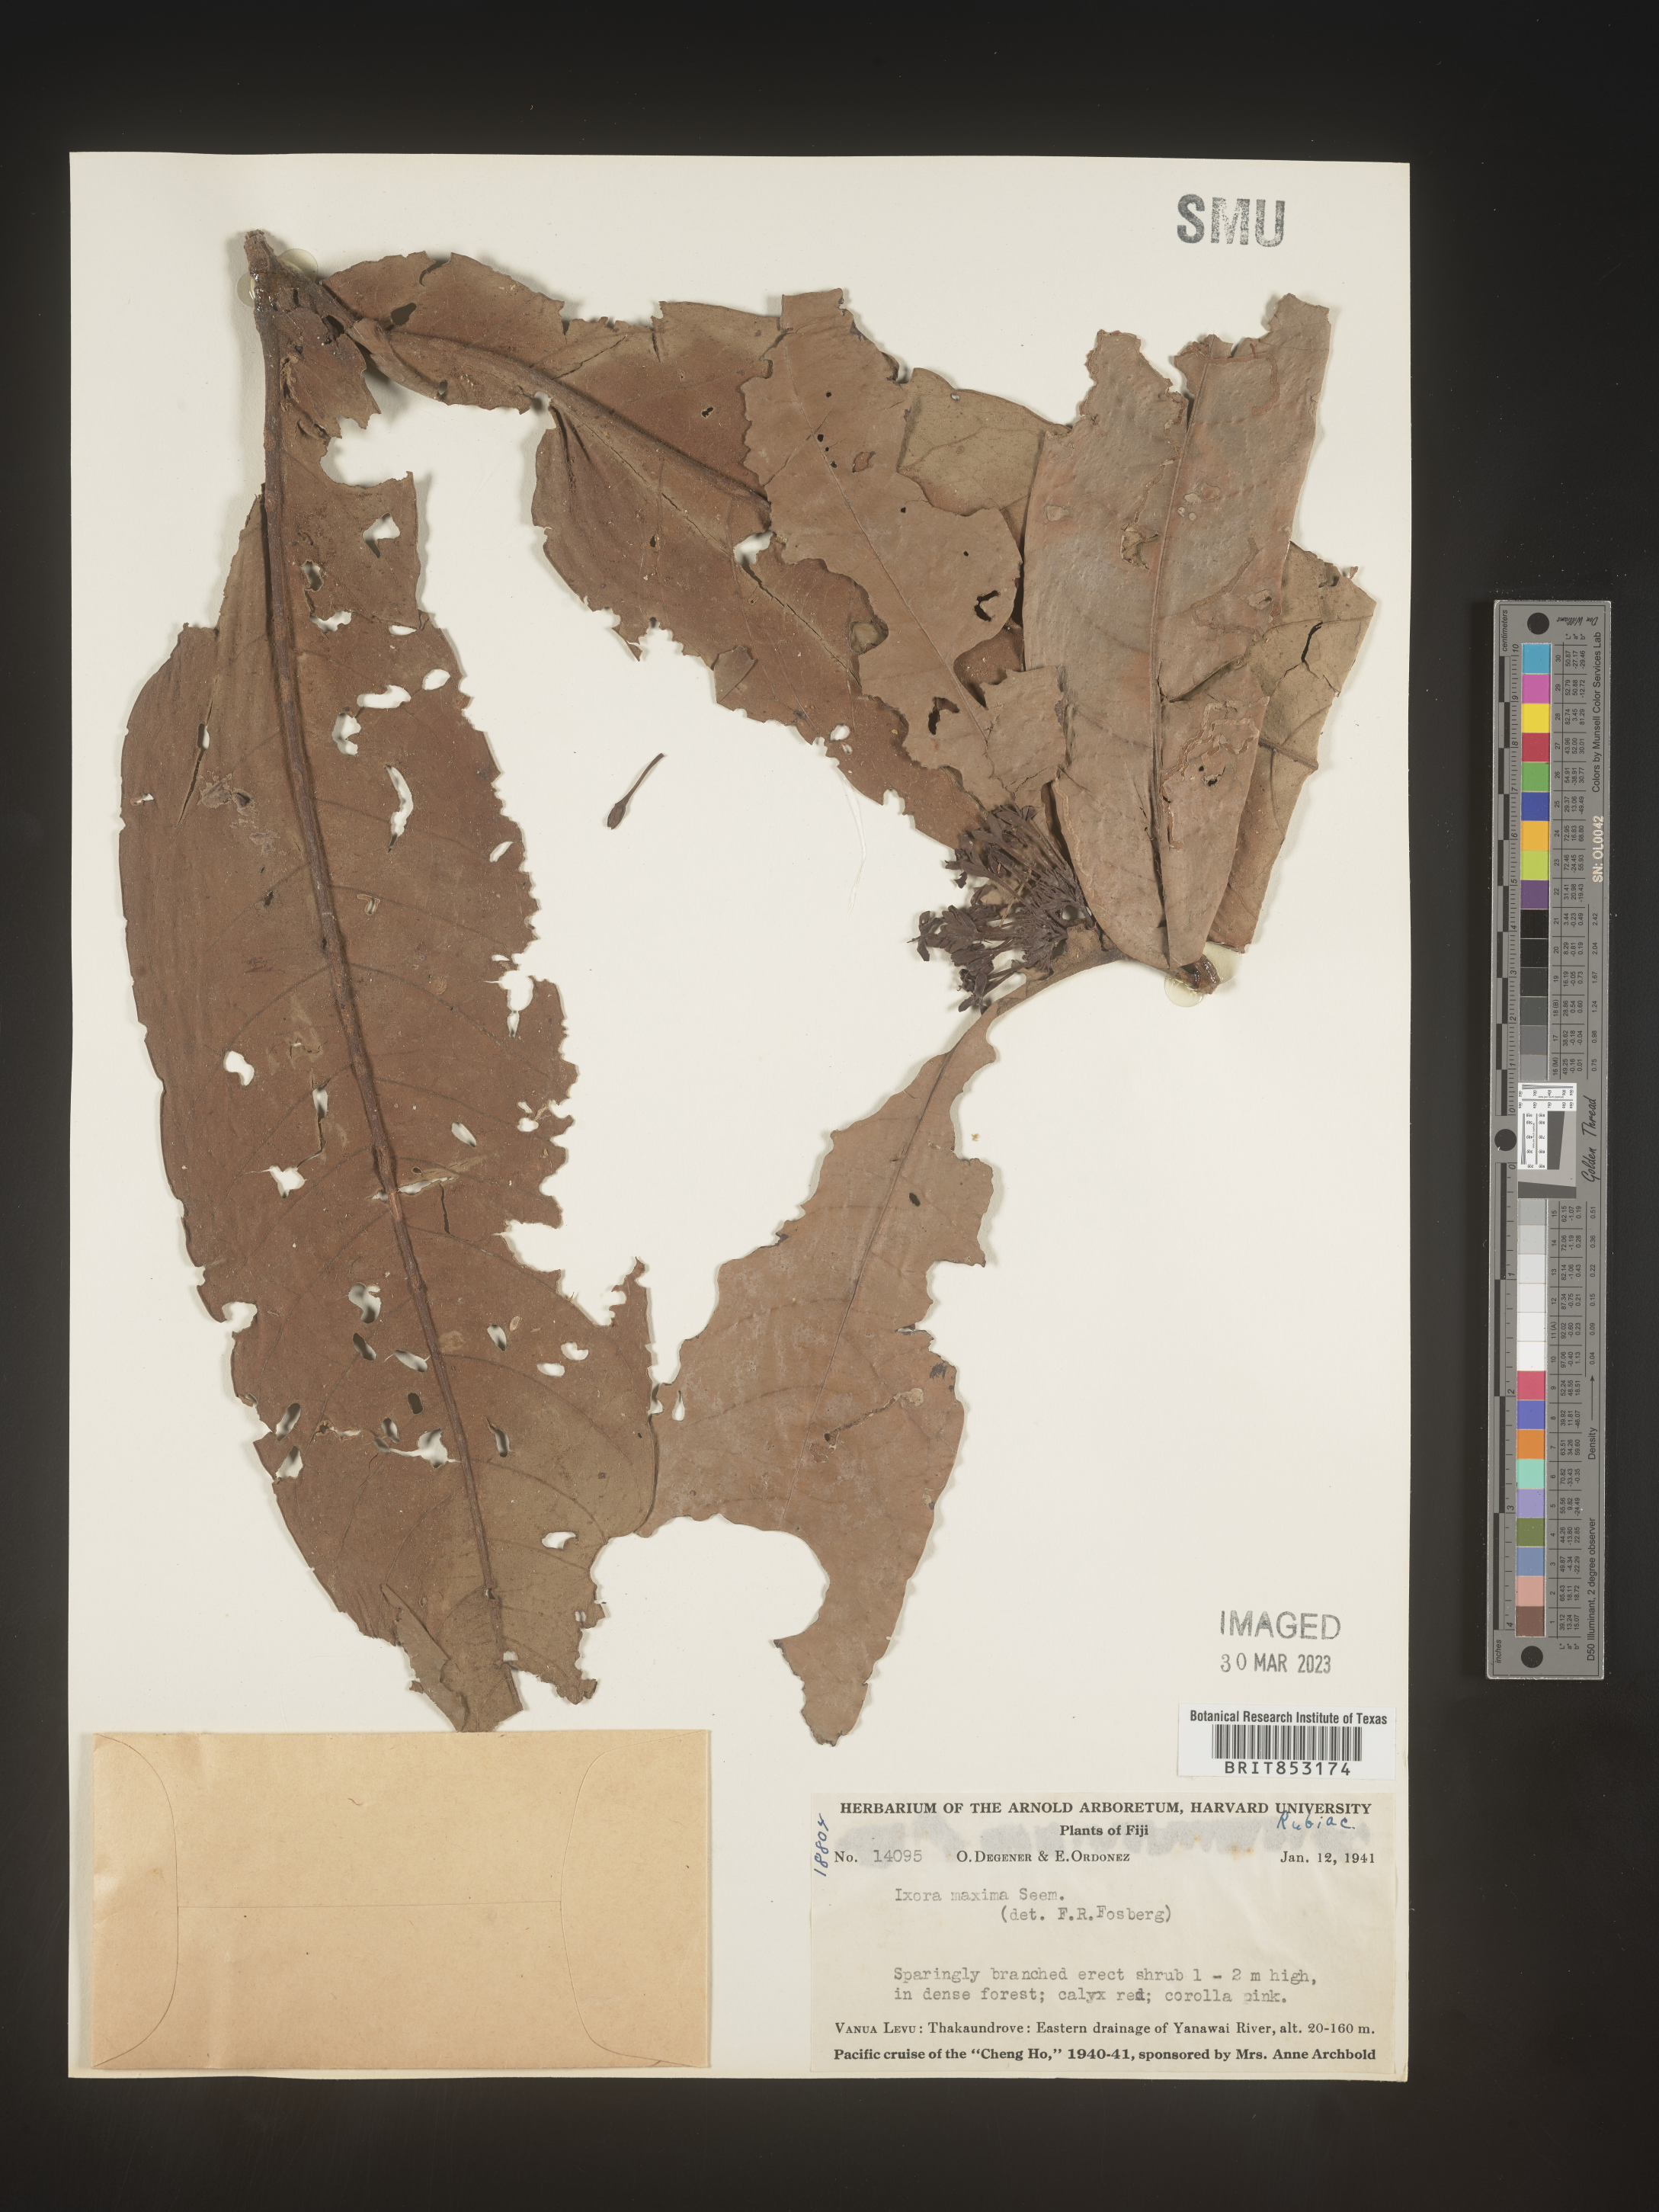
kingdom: Plantae
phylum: Tracheophyta
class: Magnoliopsida
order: Gentianales
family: Rubiaceae
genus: Ixora
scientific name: Ixora
